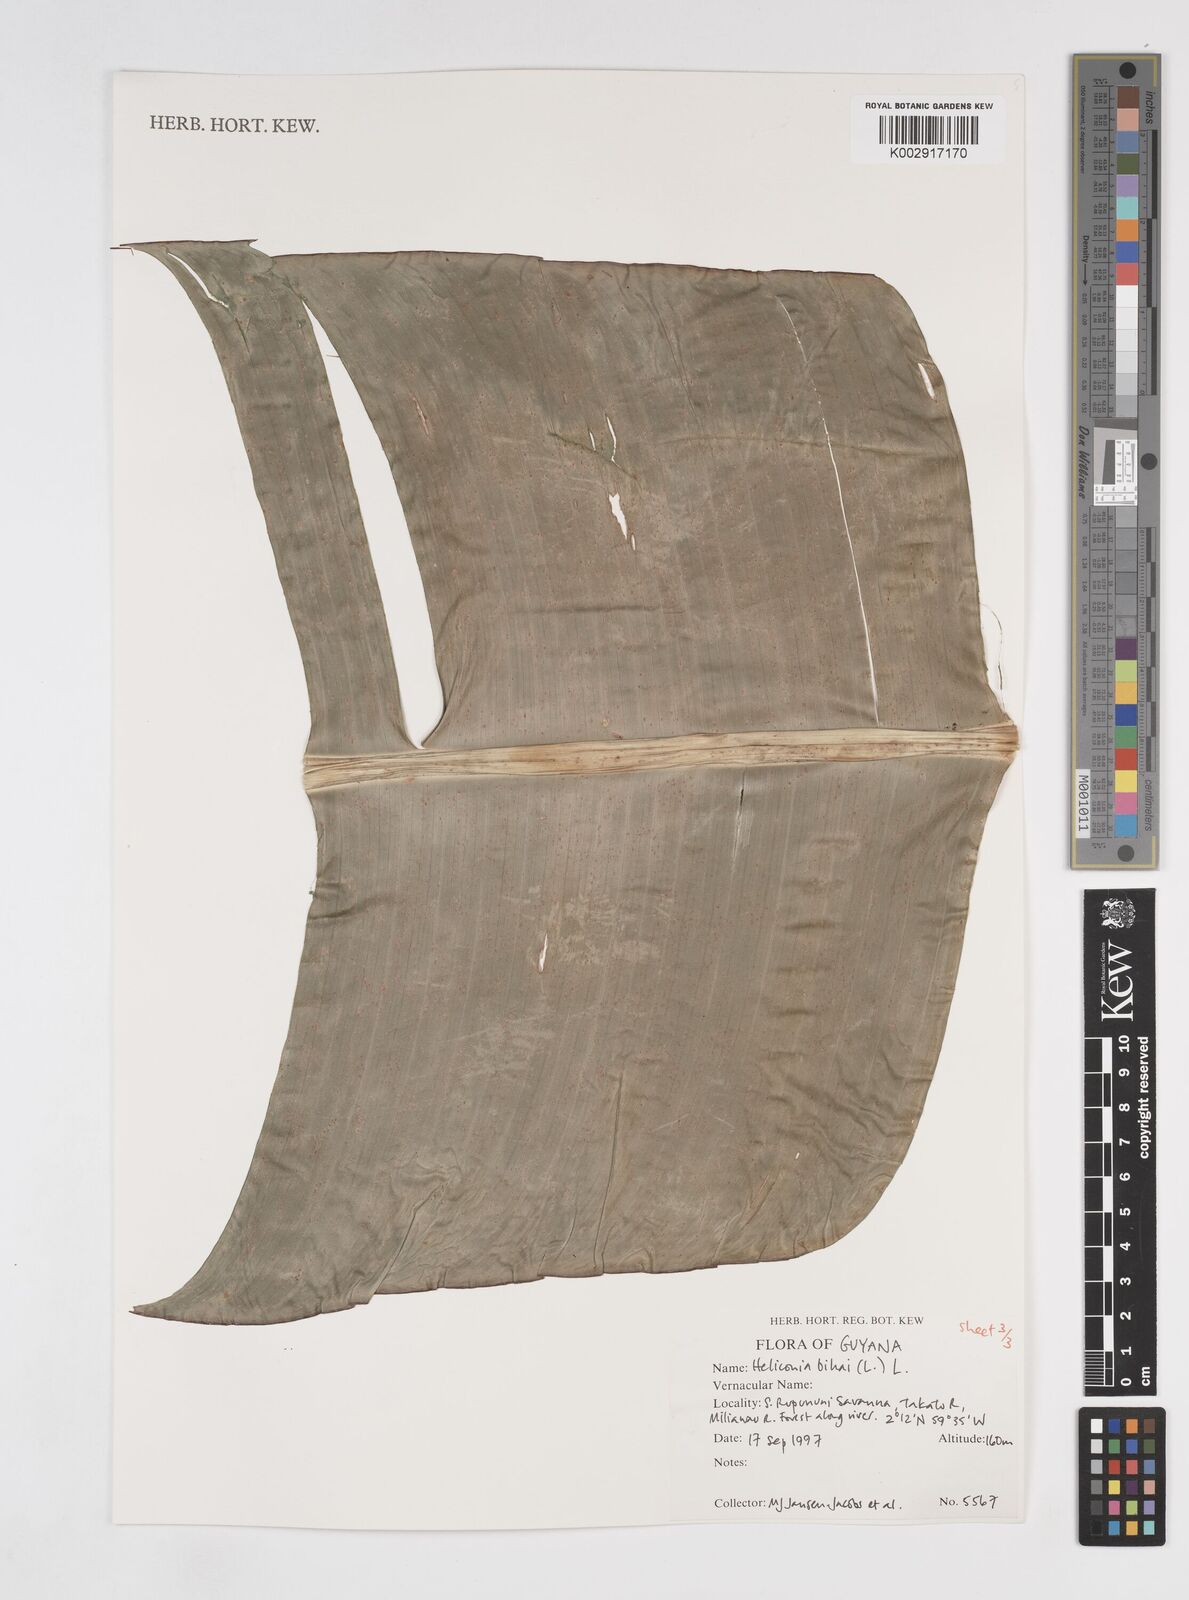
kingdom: Plantae
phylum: Tracheophyta
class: Liliopsida
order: Zingiberales
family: Heliconiaceae
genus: Heliconia
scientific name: Heliconia bihai
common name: Macaw flower
